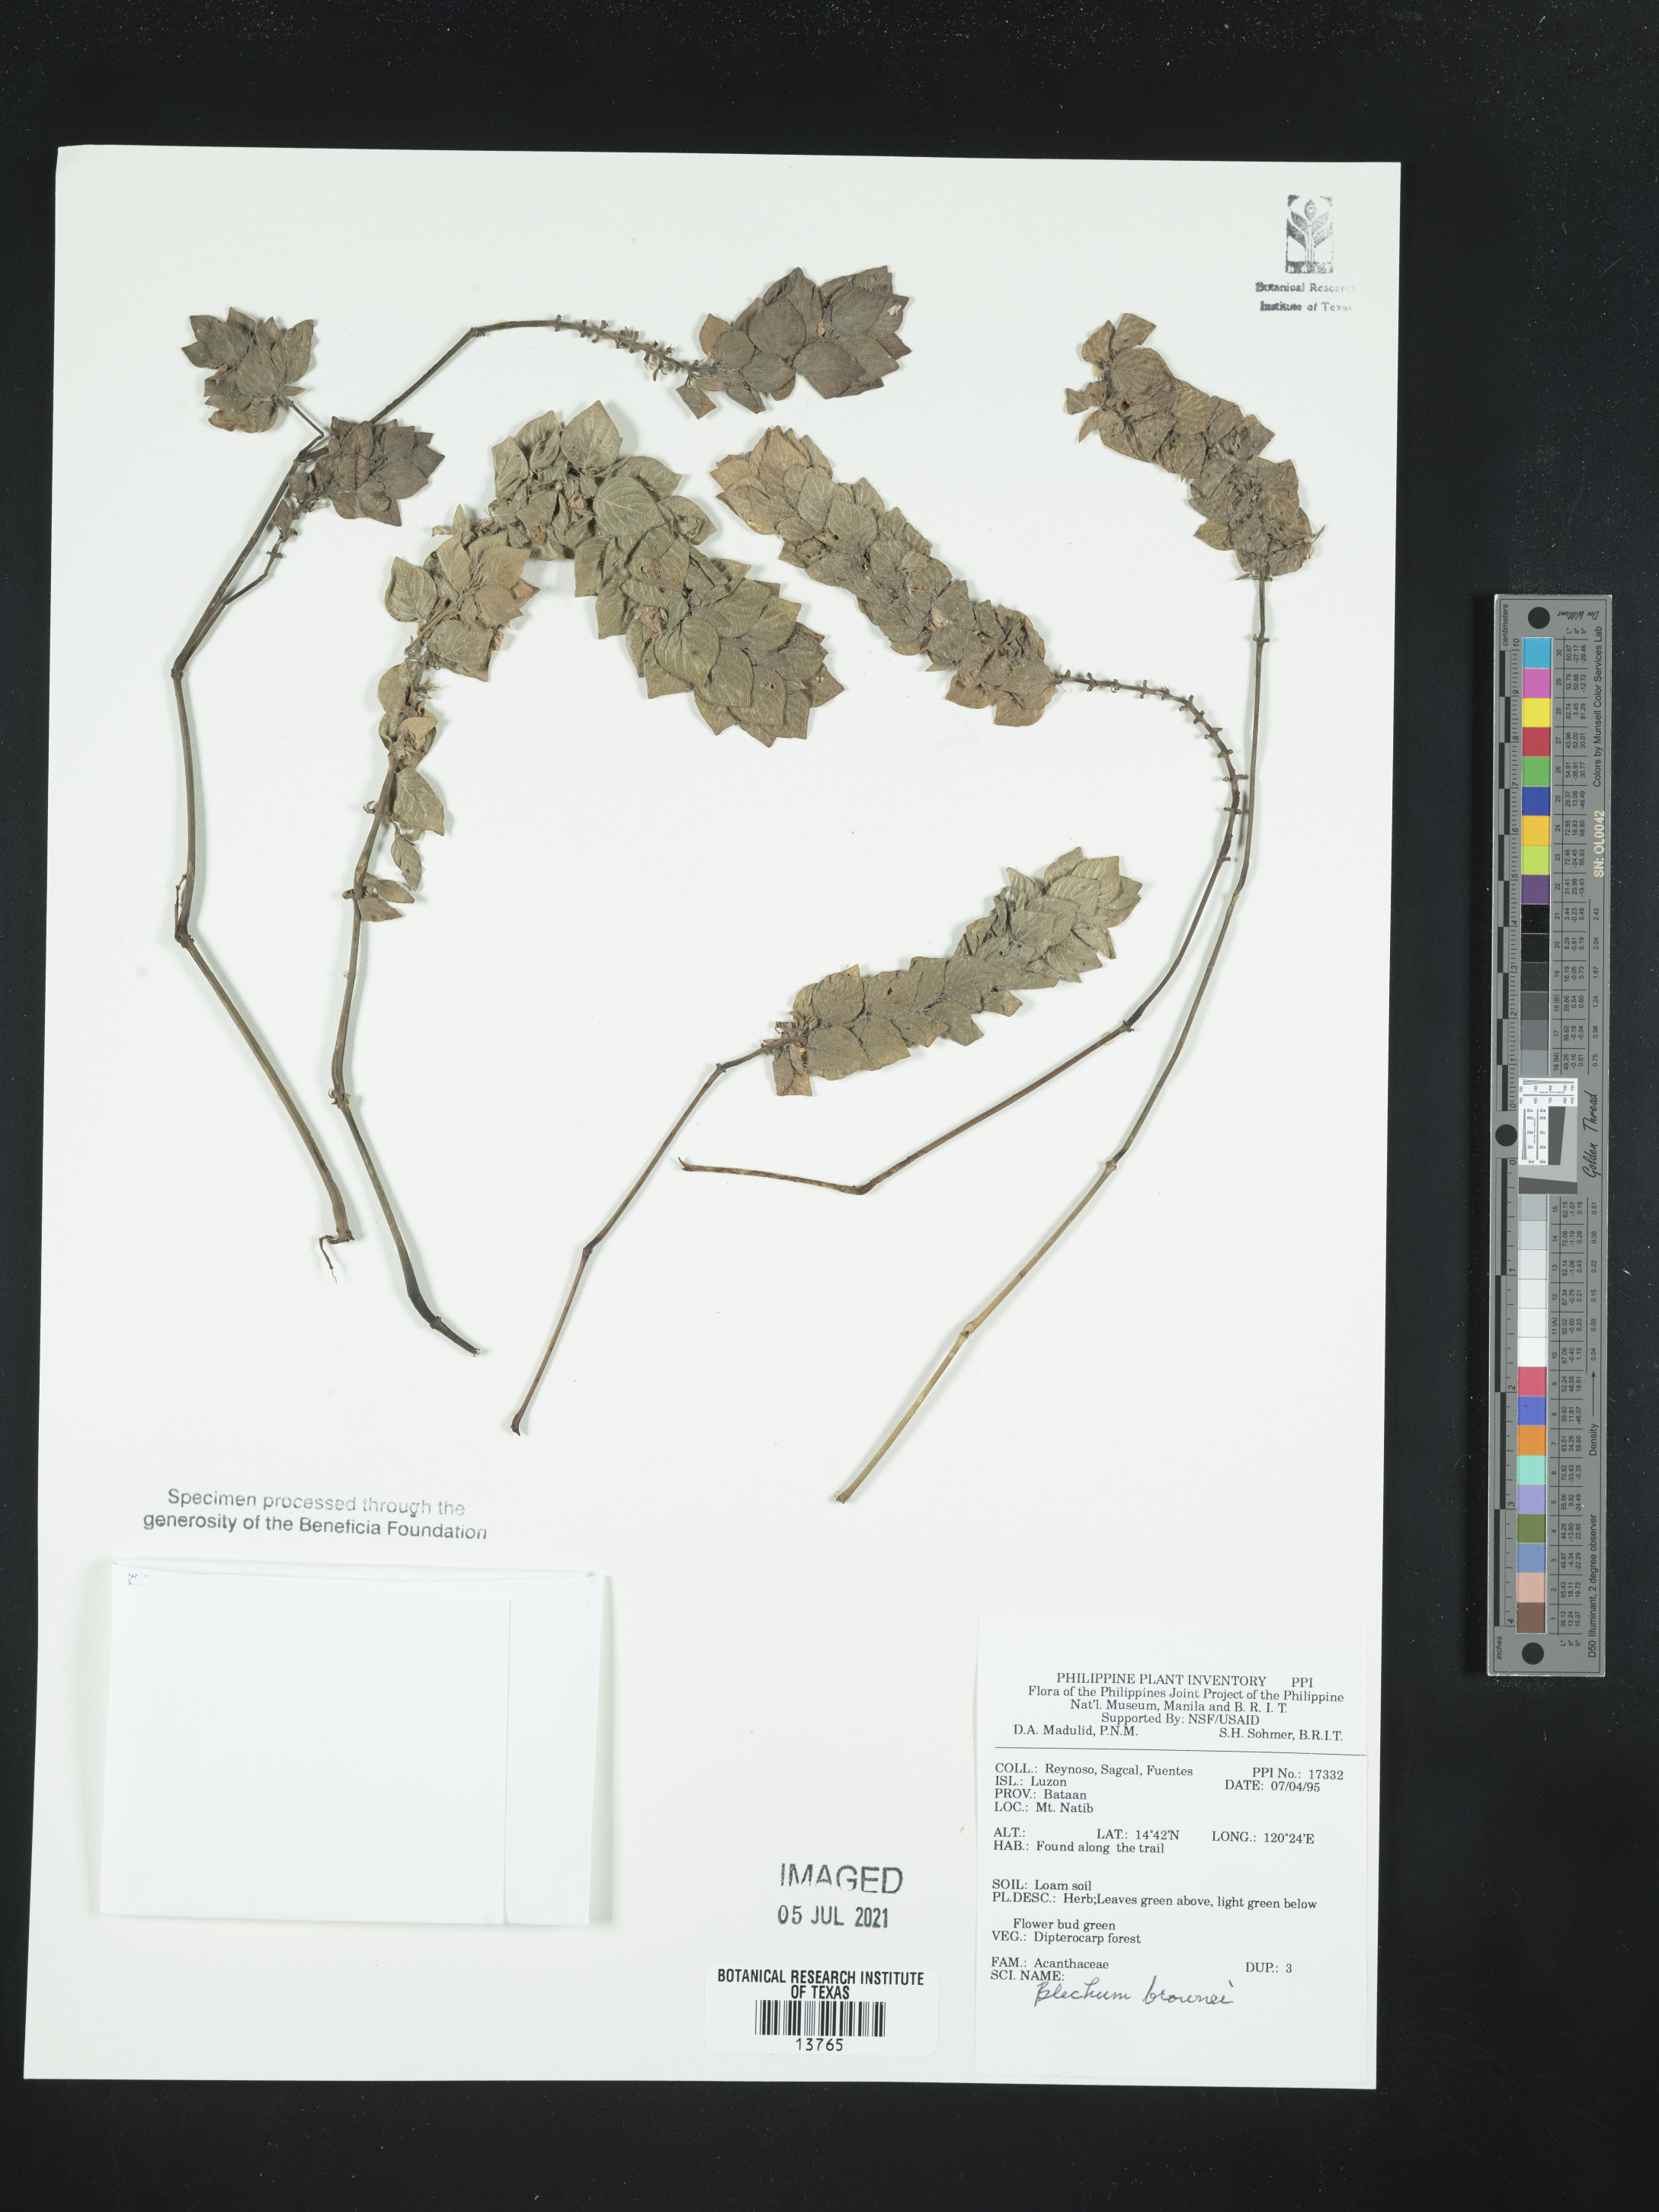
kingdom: Plantae
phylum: Tracheophyta
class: Magnoliopsida
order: Lamiales
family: Acanthaceae
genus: Ruellia
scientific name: Ruellia blechum
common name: Browne's blechum
